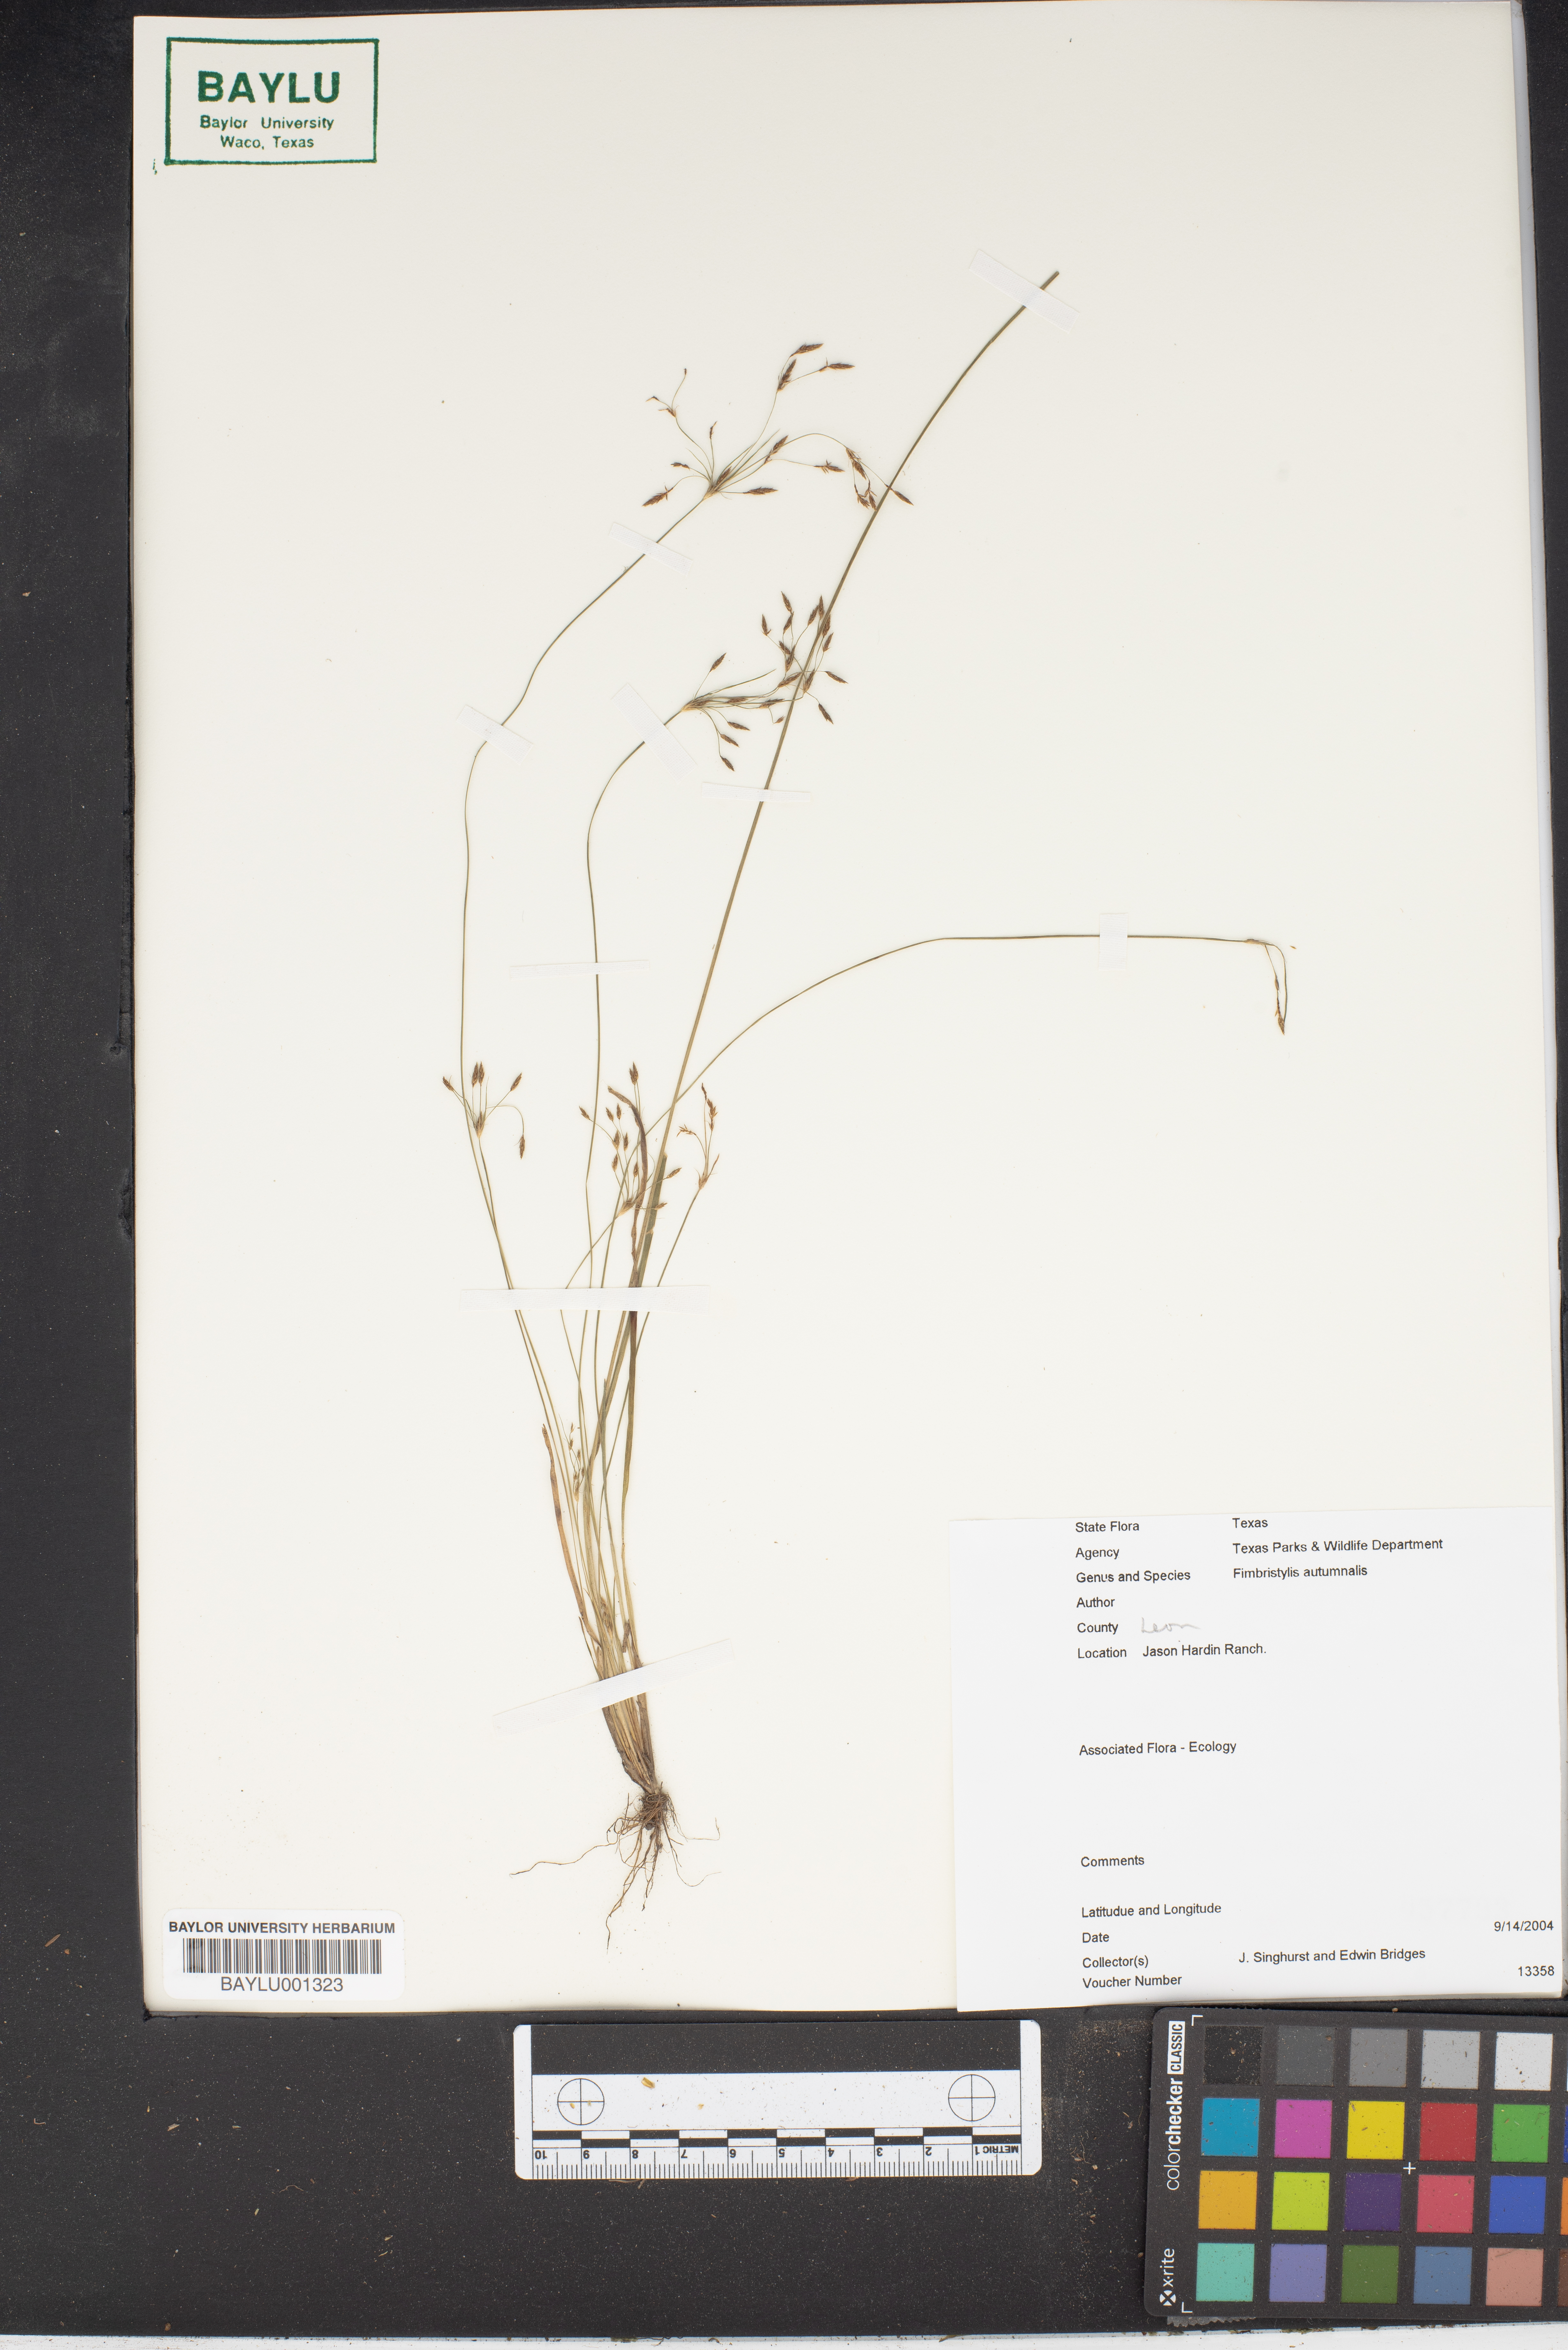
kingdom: Plantae
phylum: Tracheophyta
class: Liliopsida
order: Poales
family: Cyperaceae
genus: Fimbristylis
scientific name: Fimbristylis autumnalis
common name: Slender fimbristylis
